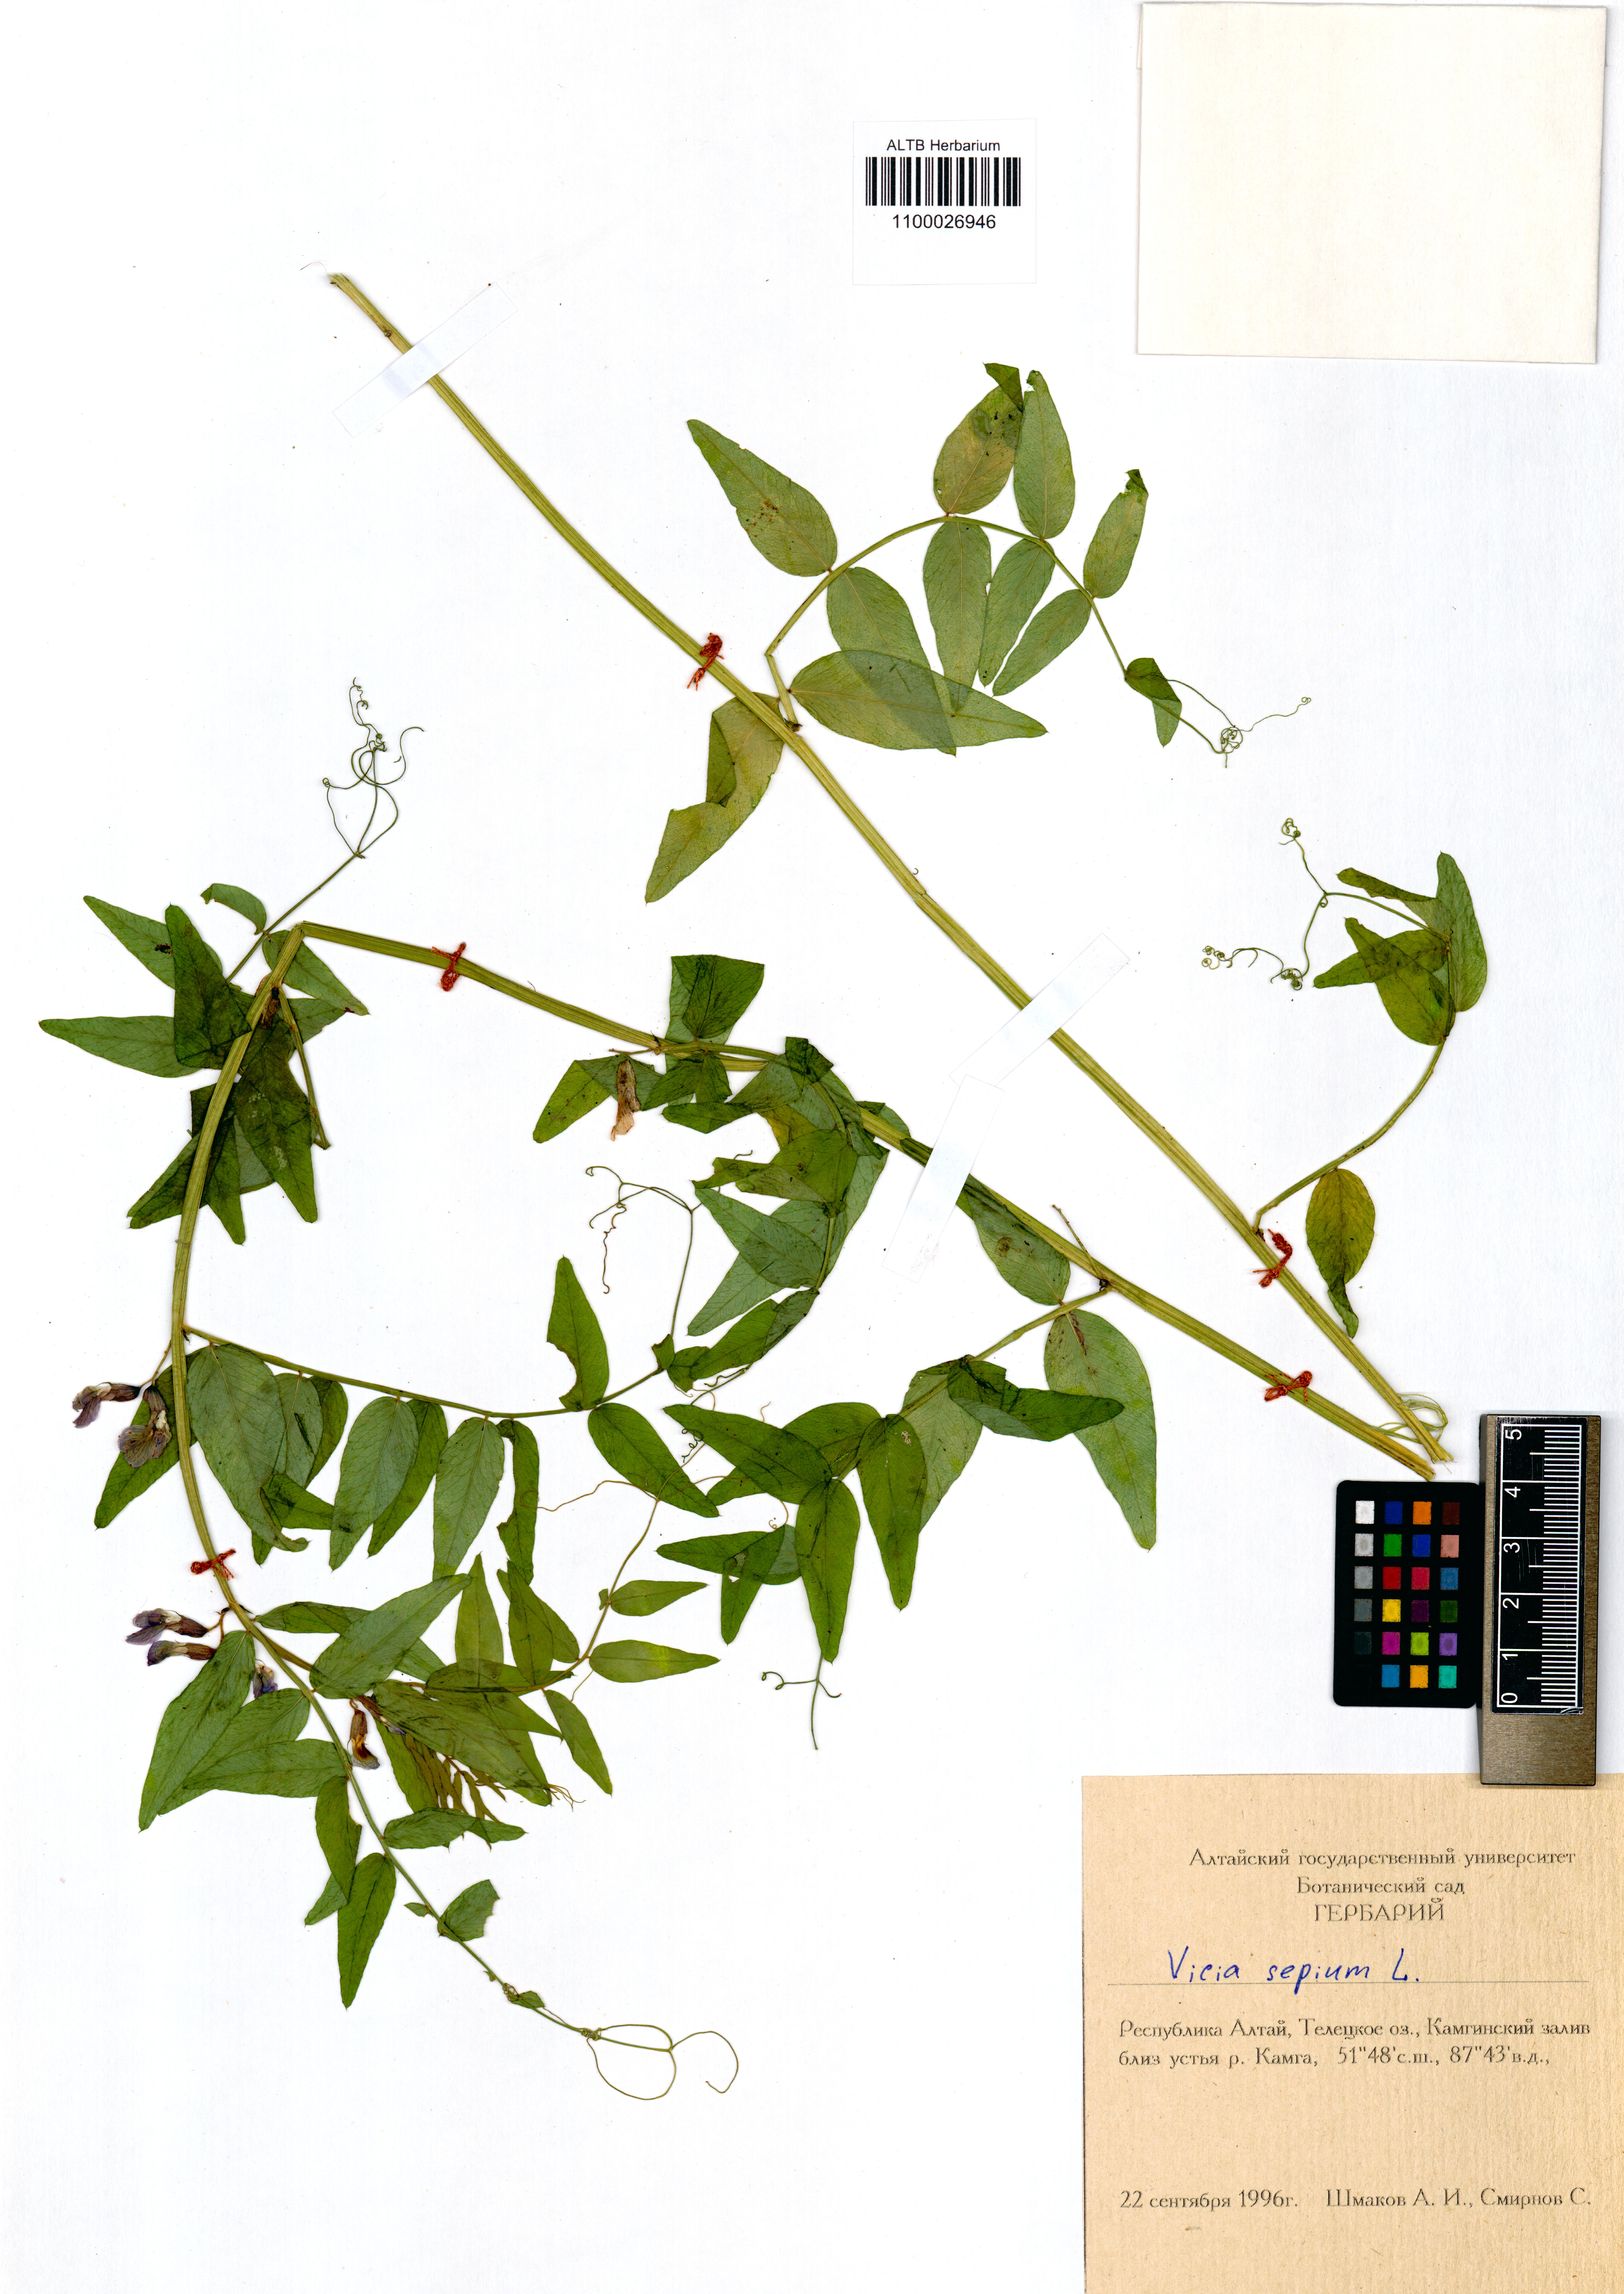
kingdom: Plantae
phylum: Tracheophyta
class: Magnoliopsida
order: Fabales
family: Fabaceae
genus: Vicia
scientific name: Vicia sepium
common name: Bush vetch
